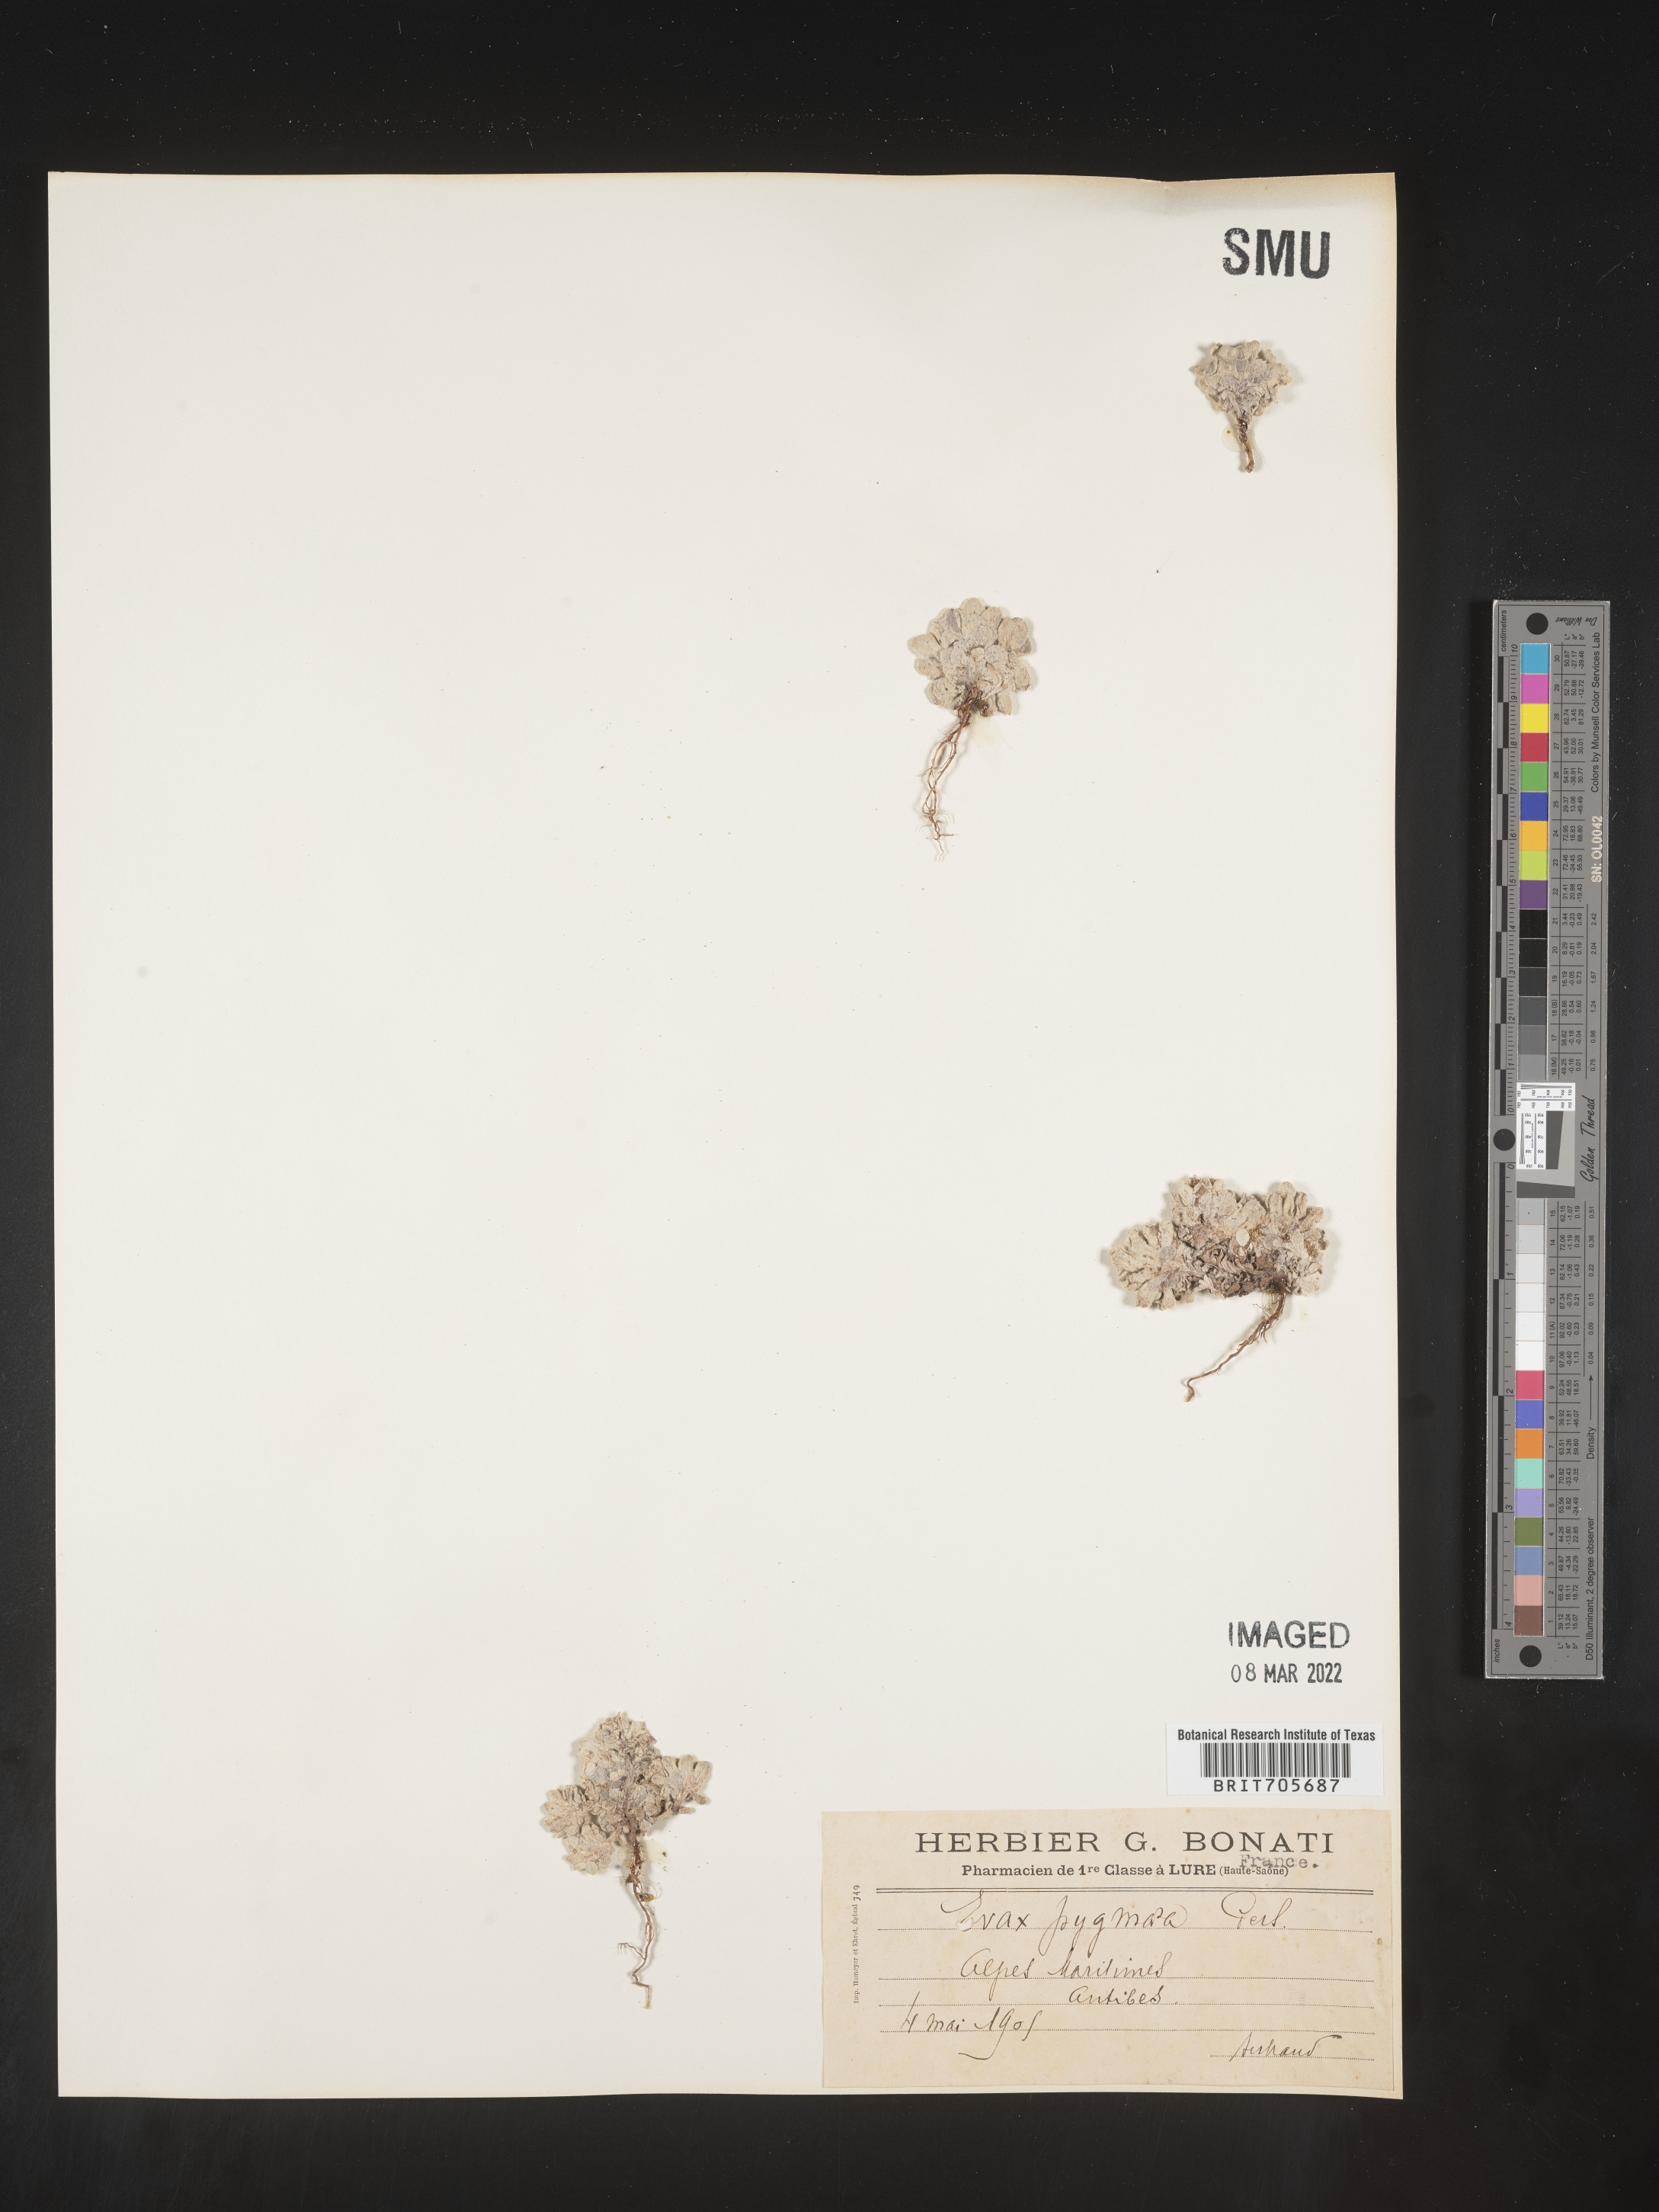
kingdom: Plantae
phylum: Tracheophyta
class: Magnoliopsida
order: Asterales
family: Asteraceae
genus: Filago
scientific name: Filago
